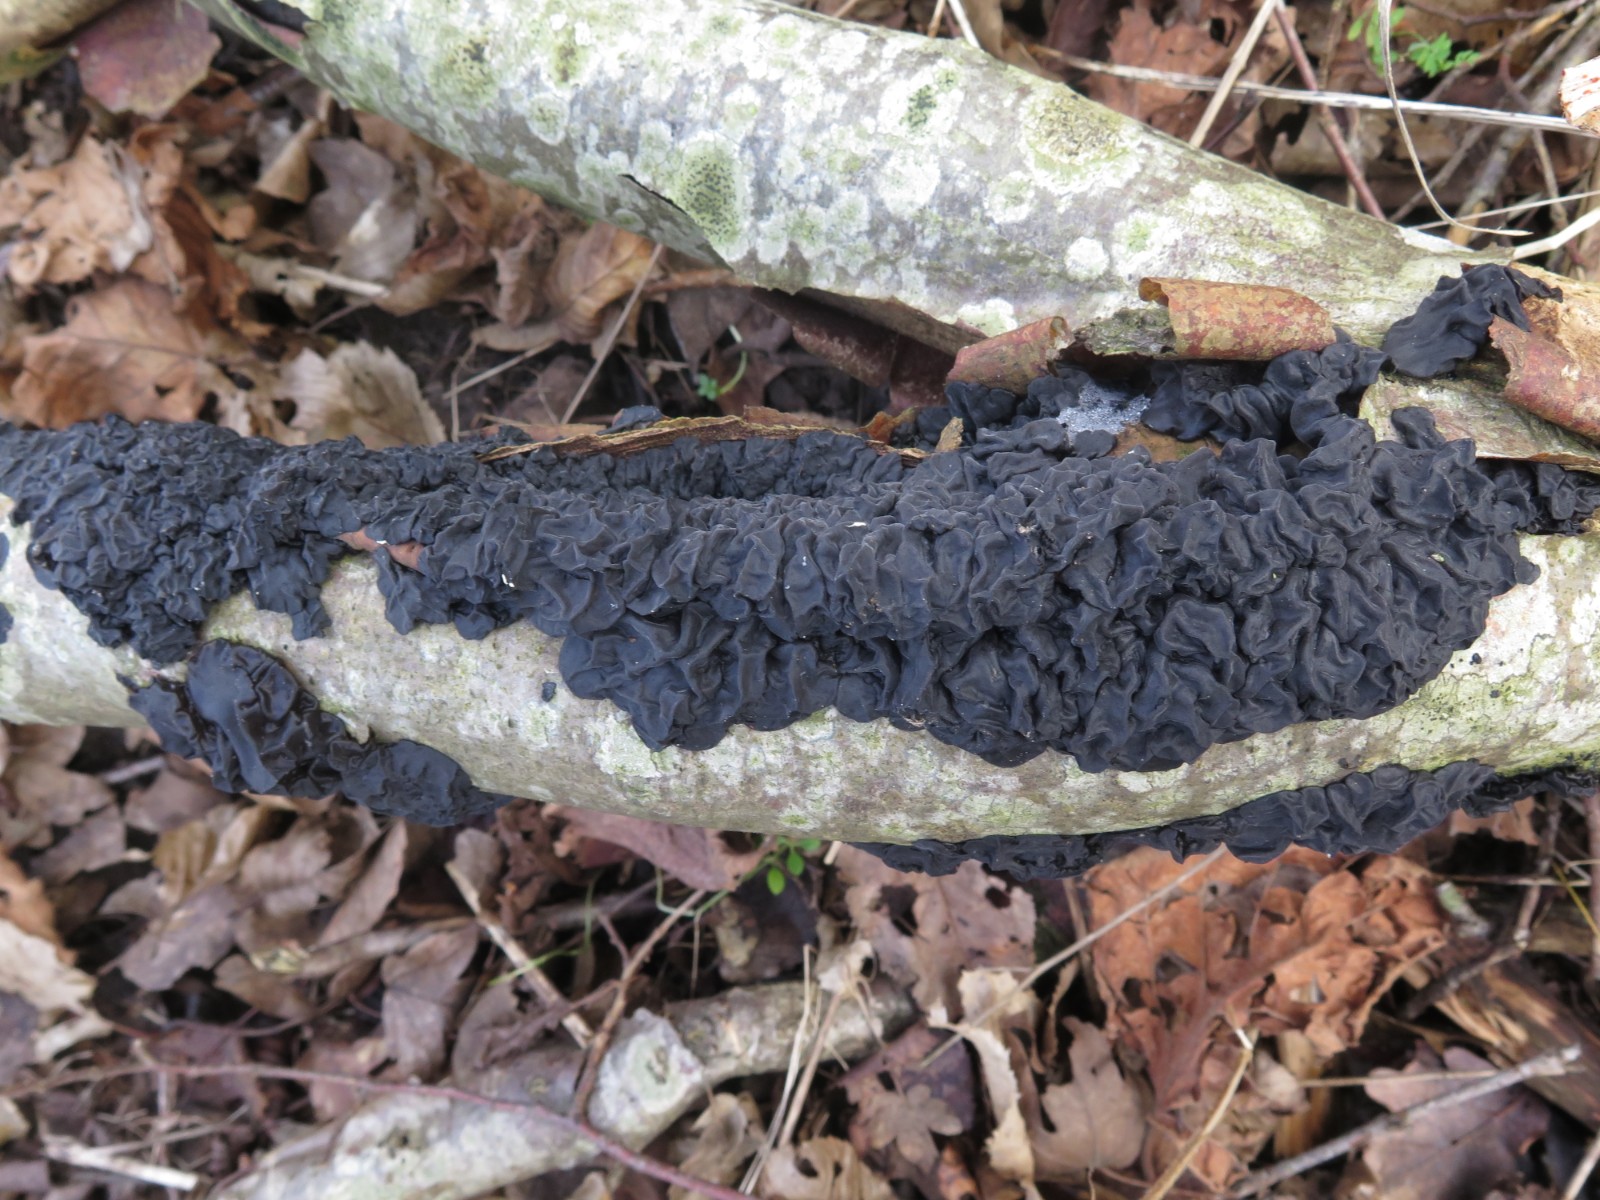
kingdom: Fungi
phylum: Basidiomycota
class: Agaricomycetes
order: Auriculariales
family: Auriculariaceae
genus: Exidia
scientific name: Exidia nigricans
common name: almindelig bævretop
